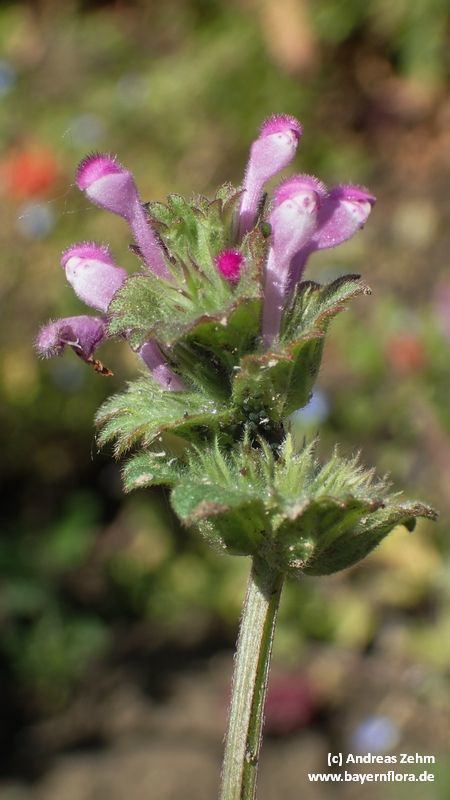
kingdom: Plantae
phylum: Tracheophyta
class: Magnoliopsida
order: Lamiales
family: Lamiaceae
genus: Lamium
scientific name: Lamium amplexicaule
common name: Henbit dead-nettle
